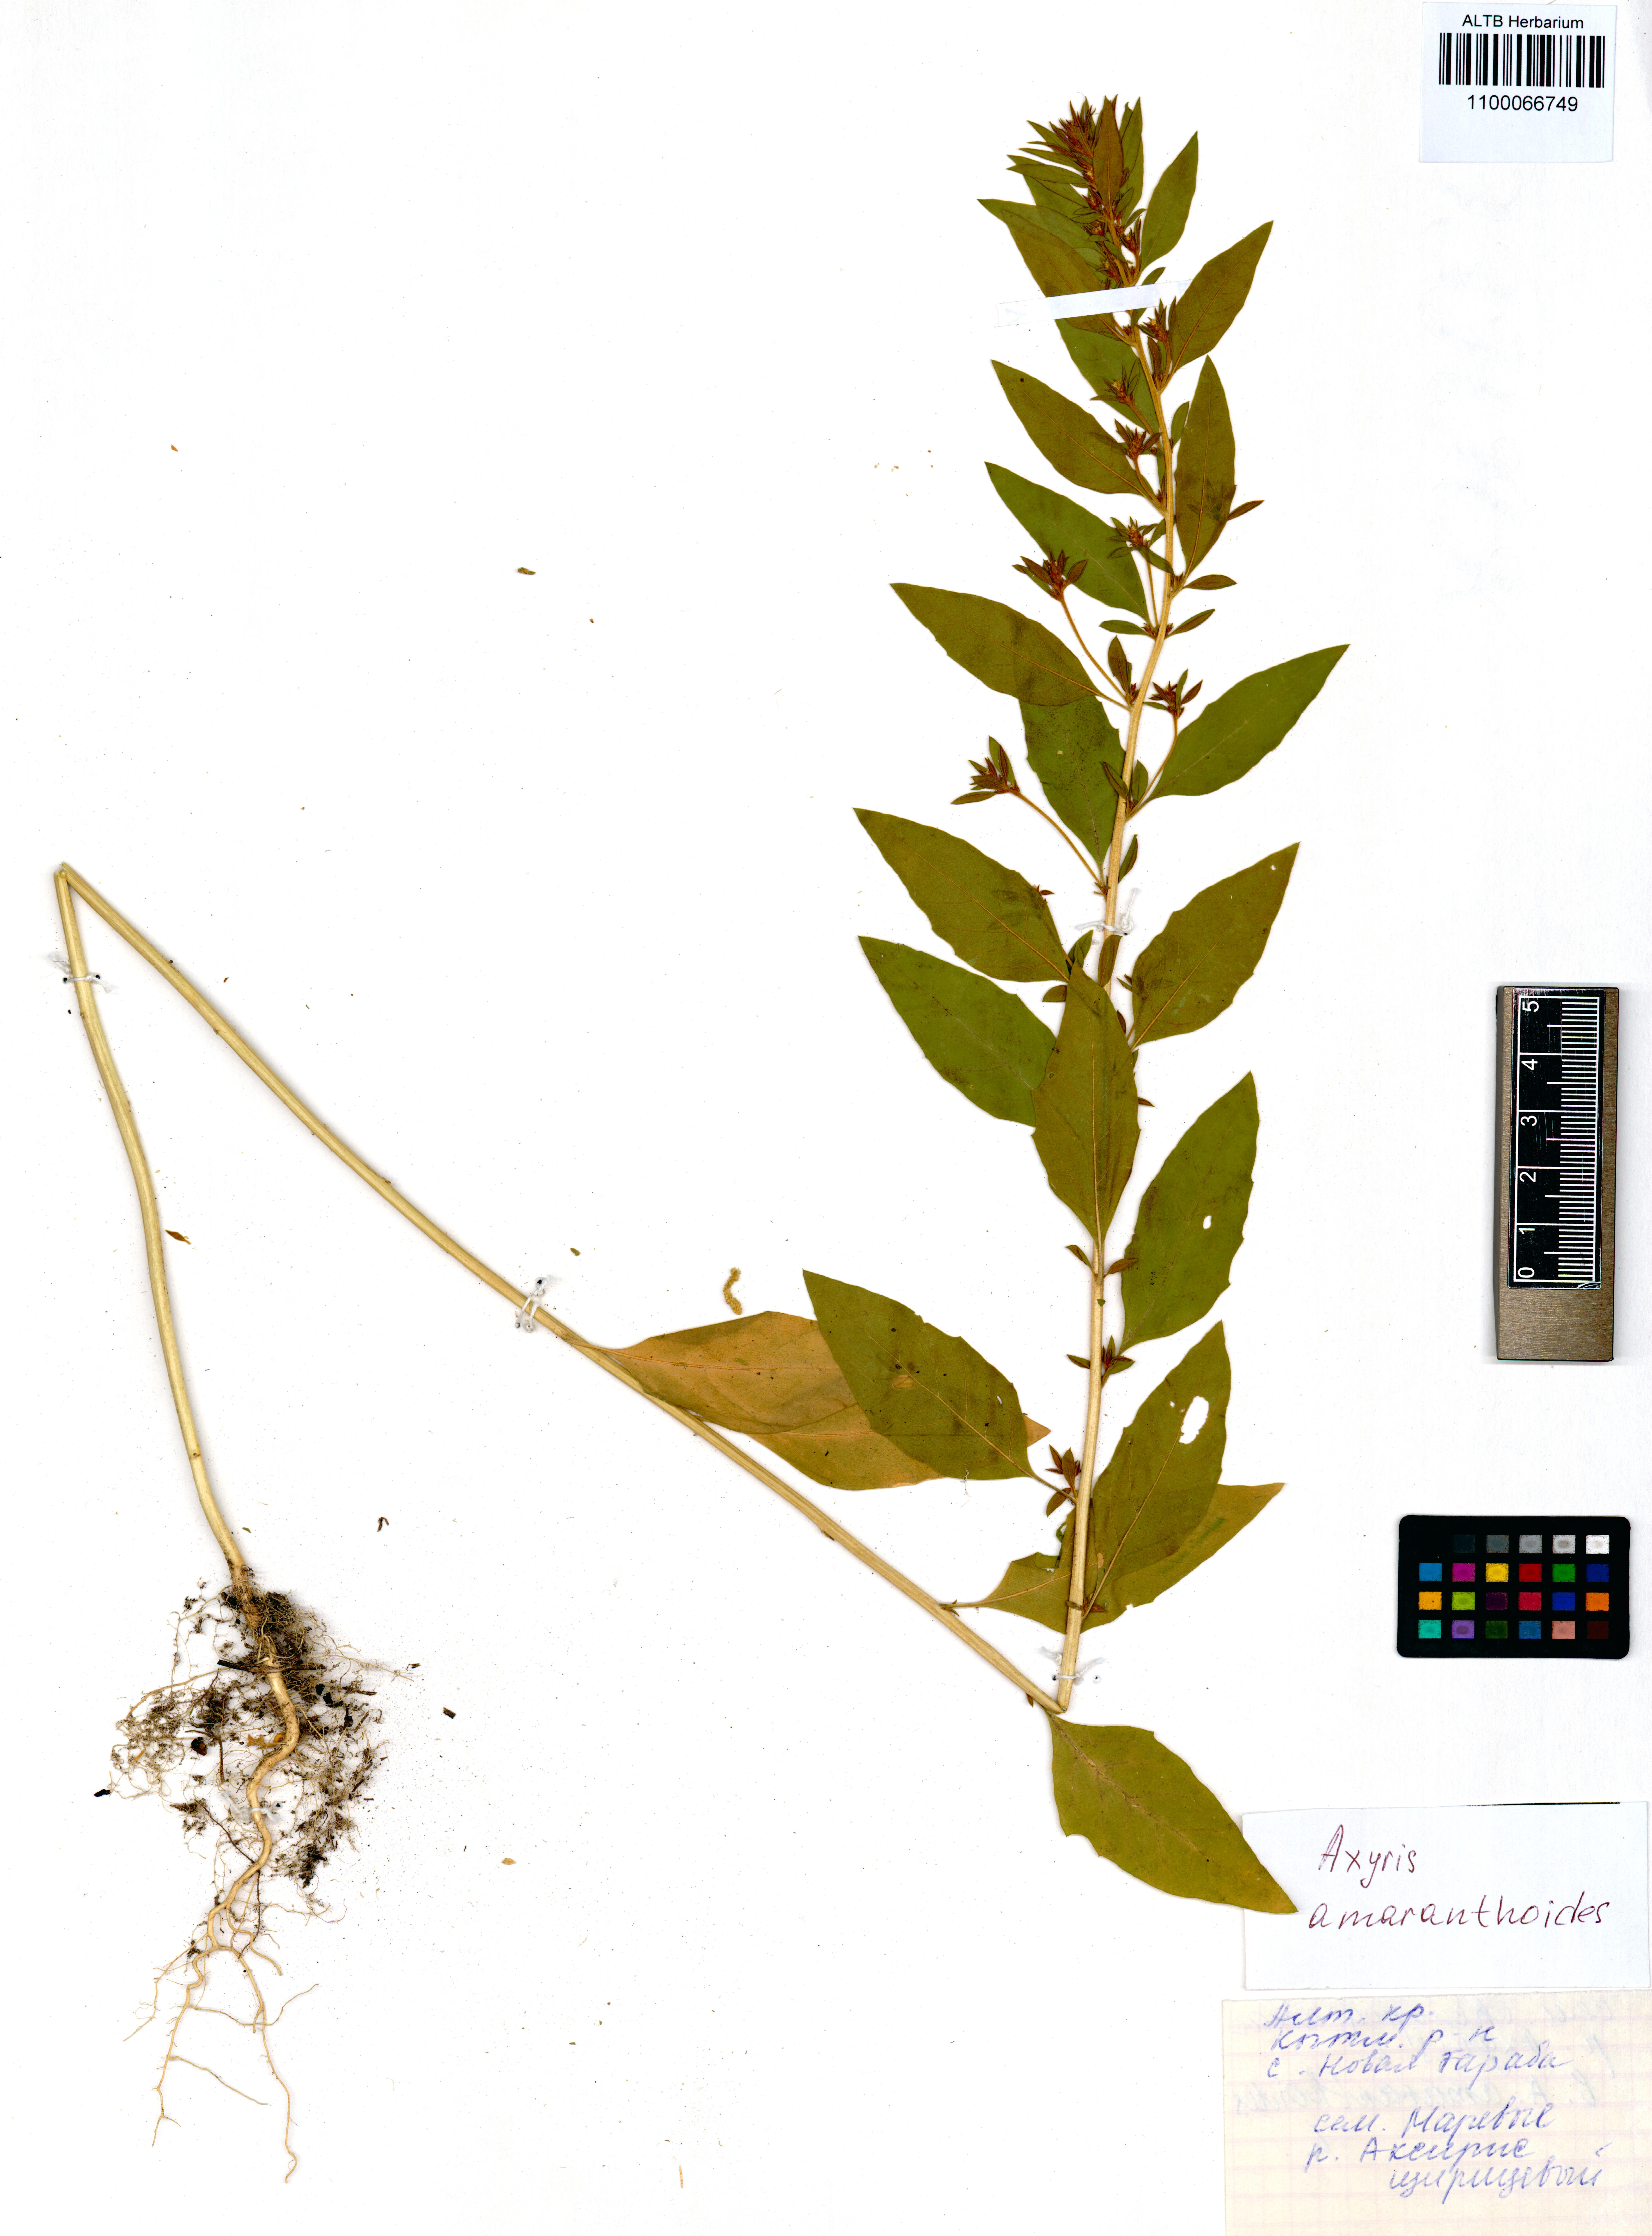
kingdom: Plantae
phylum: Tracheophyta
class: Magnoliopsida
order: Caryophyllales
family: Amaranthaceae
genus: Axyris
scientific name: Axyris amaranthoides
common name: Russian pigweed
